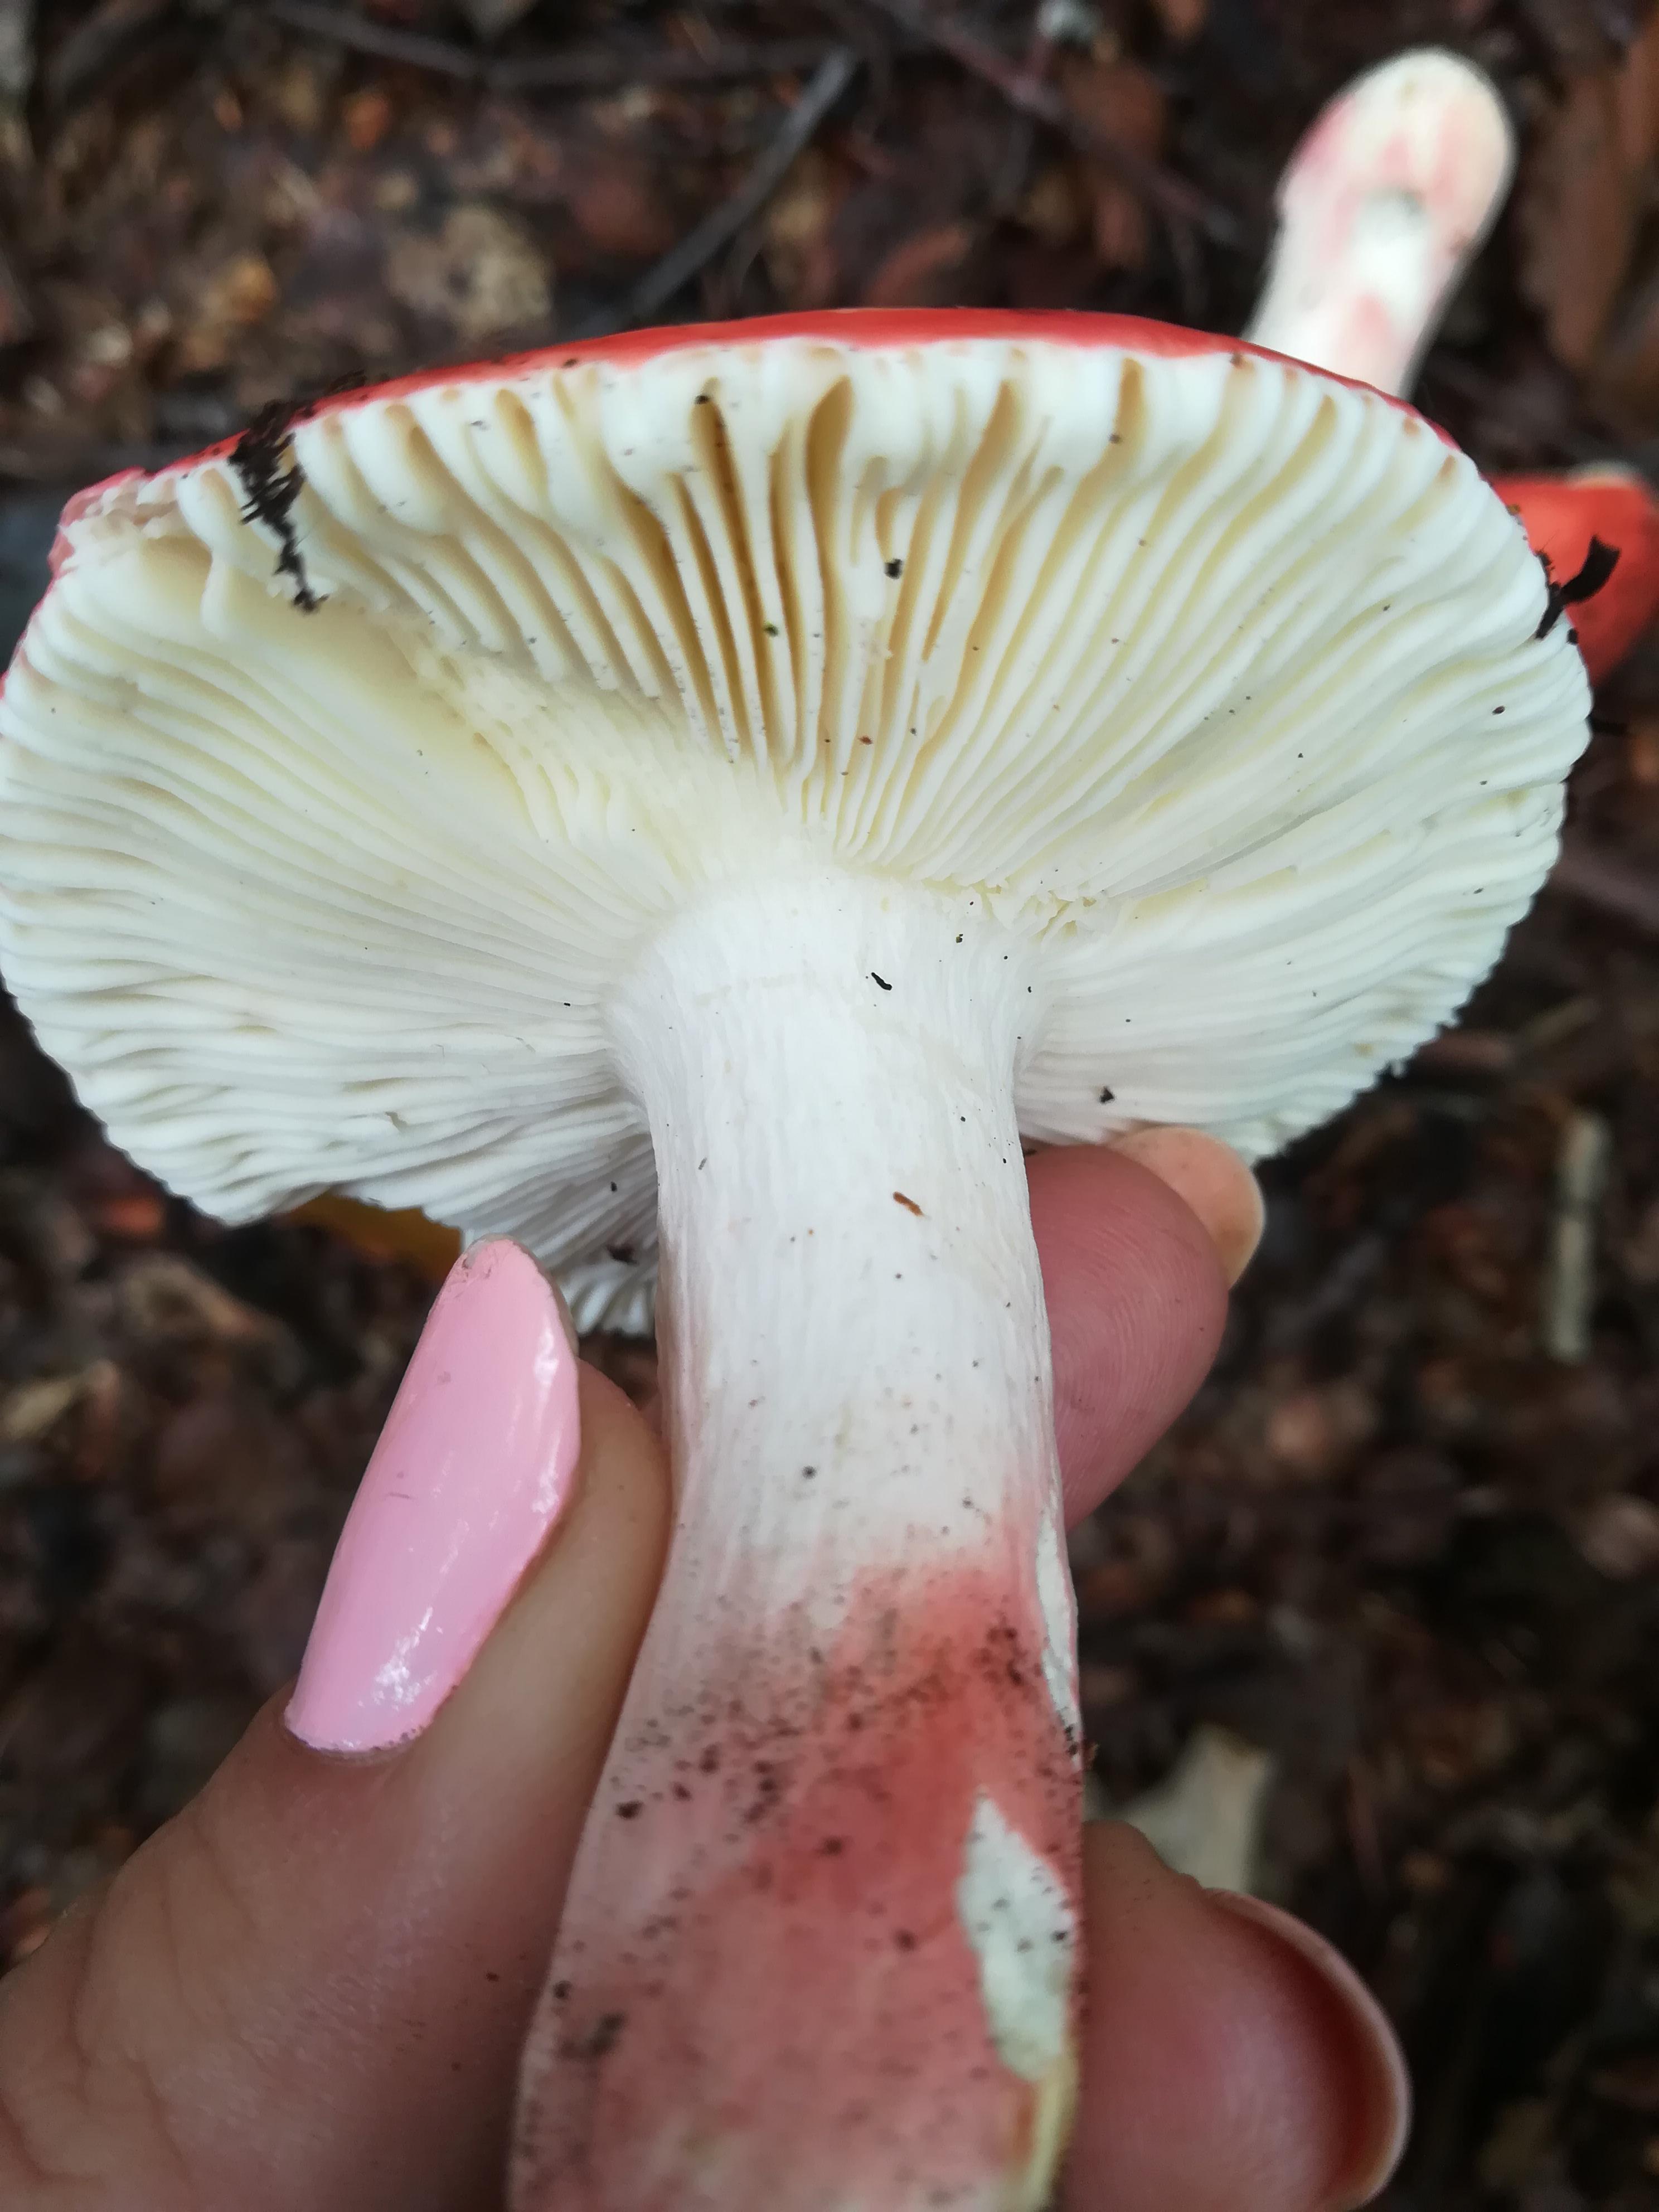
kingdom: Fungi
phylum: Basidiomycota
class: Agaricomycetes
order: Russulales
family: Russulaceae
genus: Russula
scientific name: Russula rosea
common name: fastkødet skørhat
